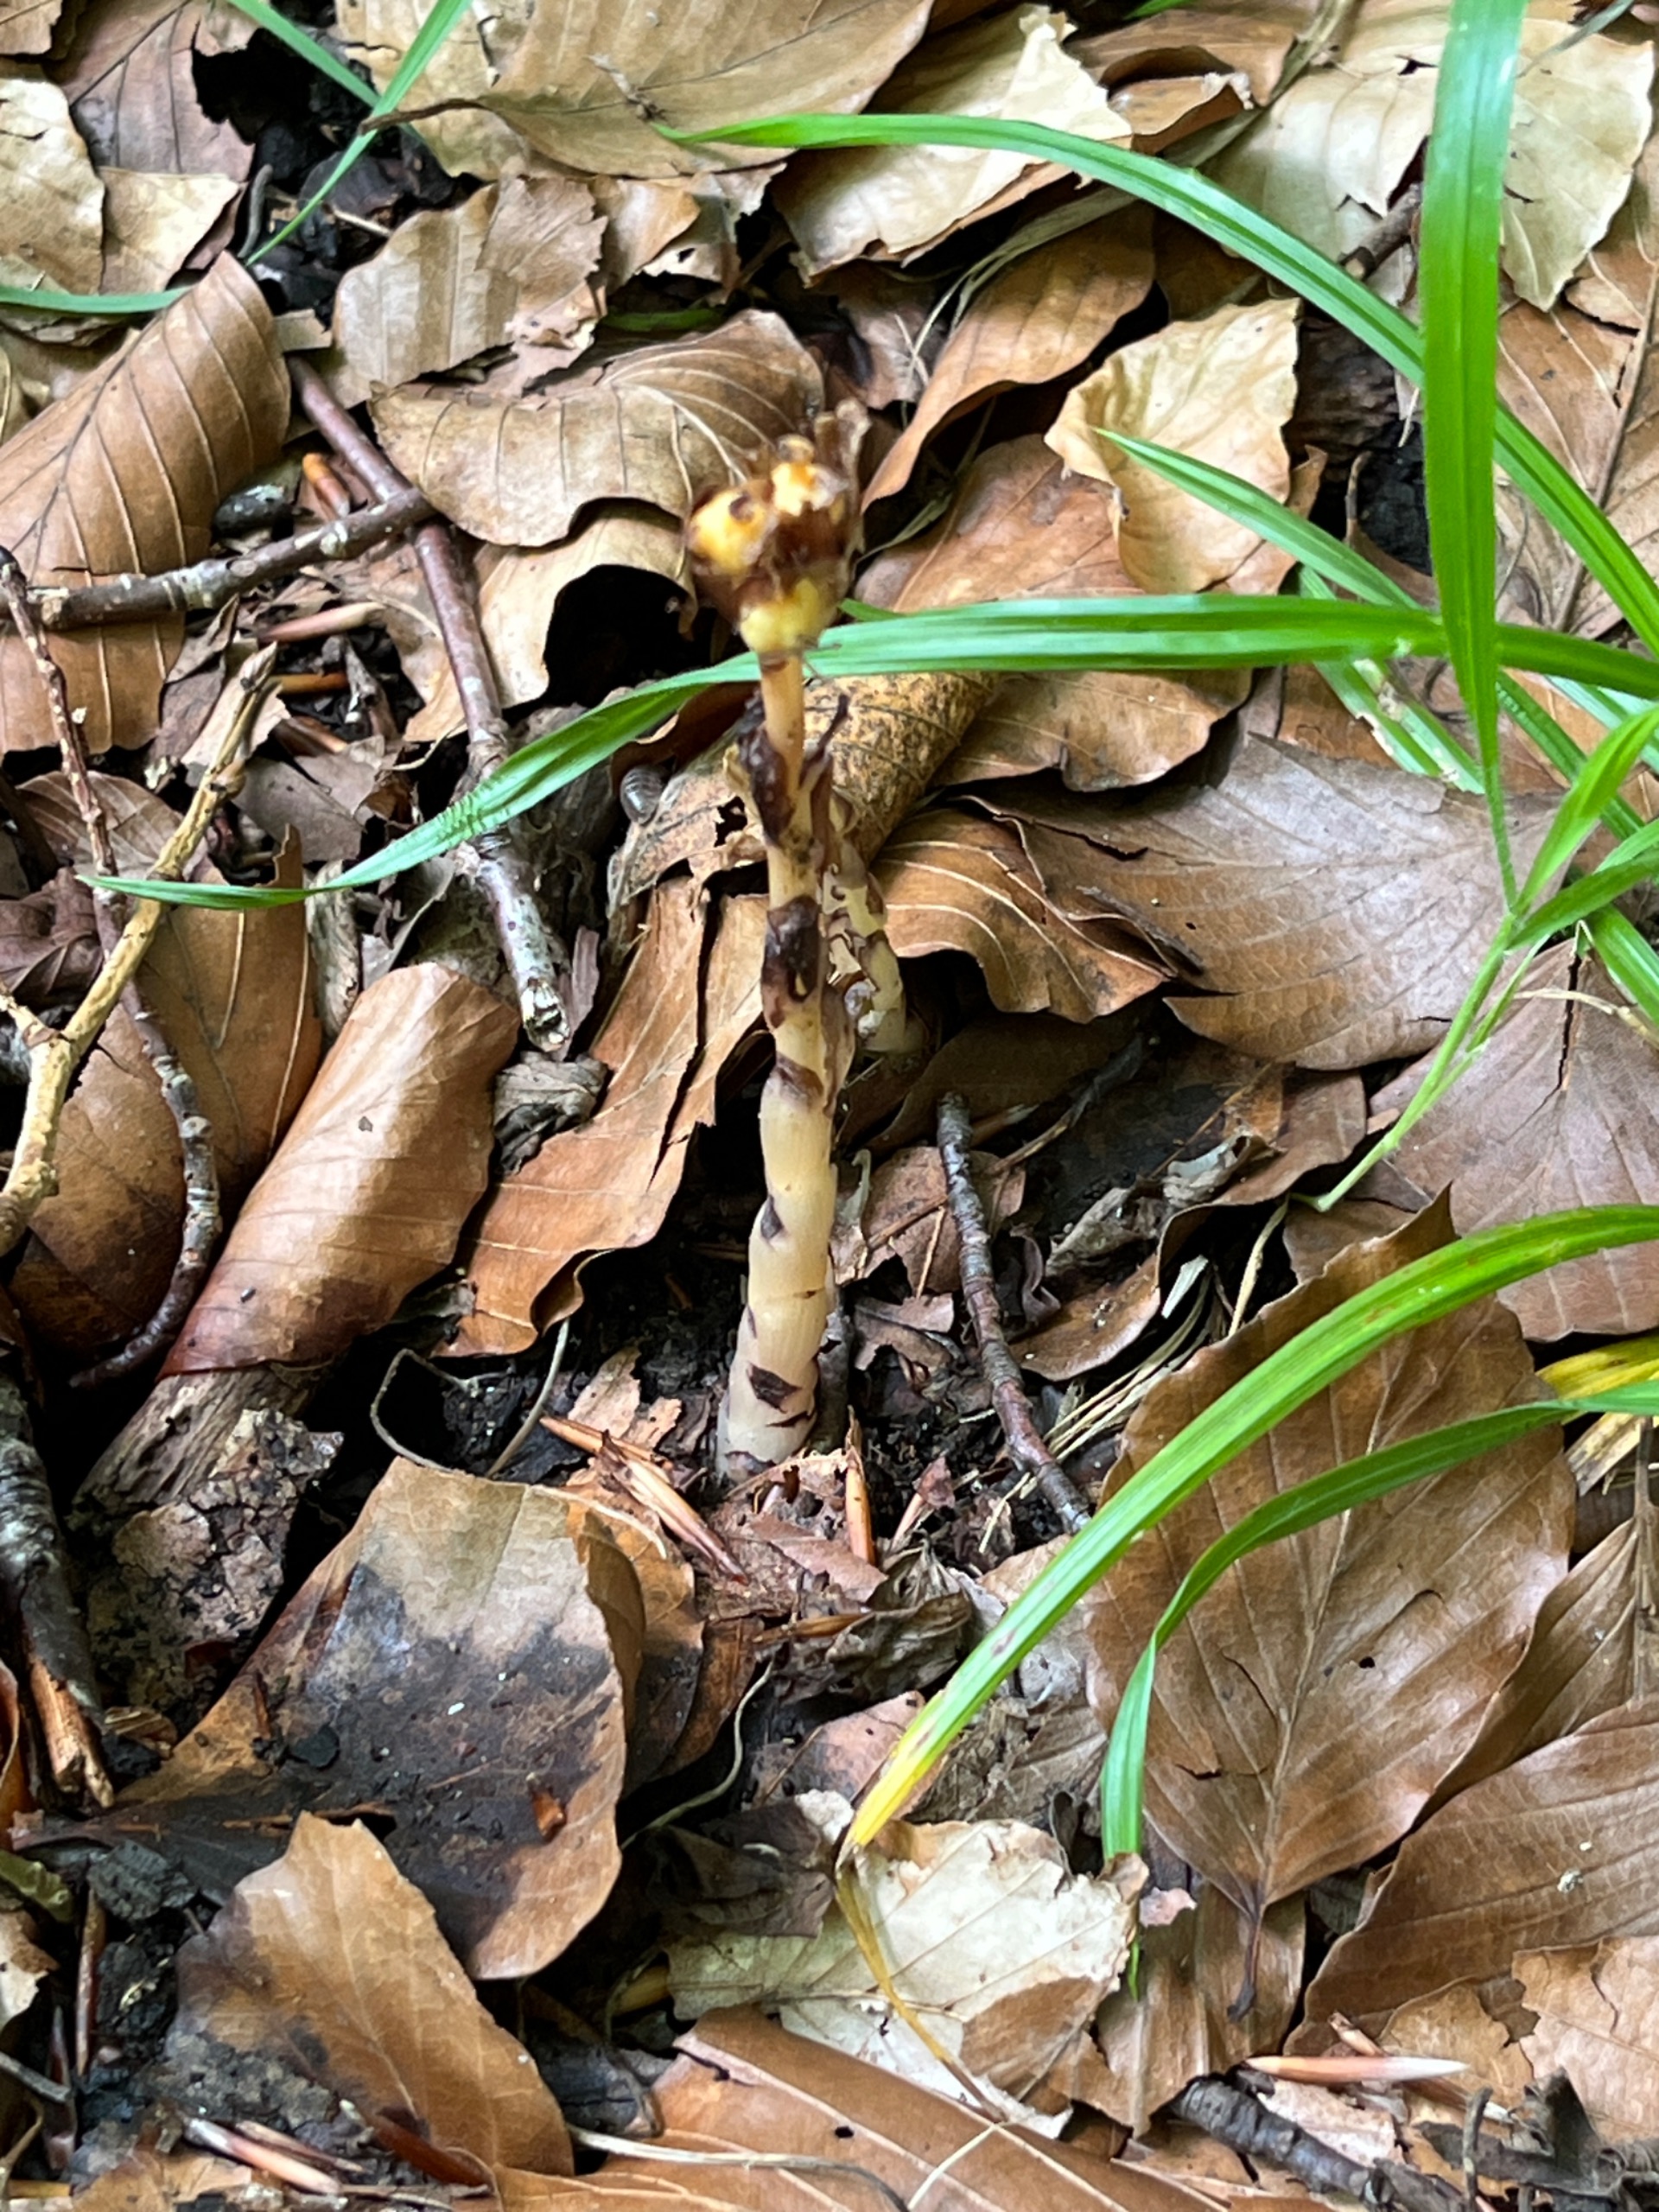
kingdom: Plantae
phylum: Tracheophyta
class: Magnoliopsida
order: Ericales
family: Ericaceae
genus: Hypopitys
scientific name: Hypopitys monotropa
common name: Snylterod
